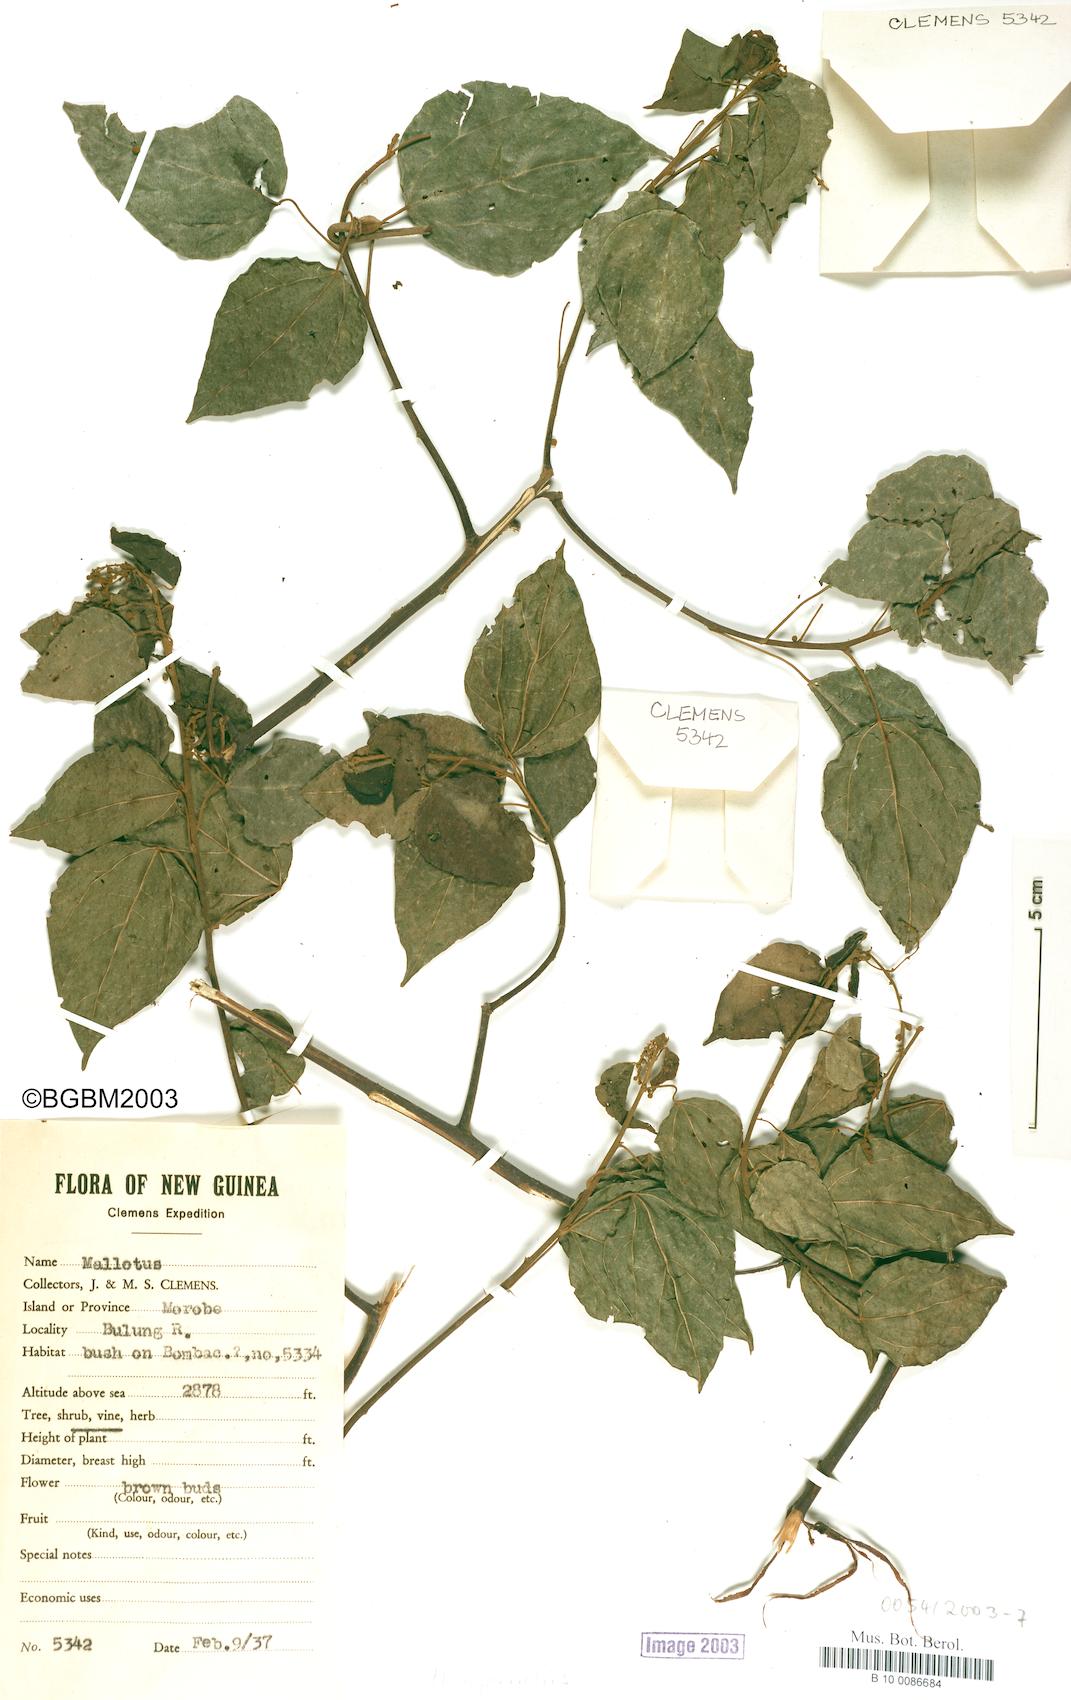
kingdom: Plantae
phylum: Tracheophyta
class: Magnoliopsida
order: Malpighiales
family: Euphorbiaceae
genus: Mallotus
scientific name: Mallotus repandus
